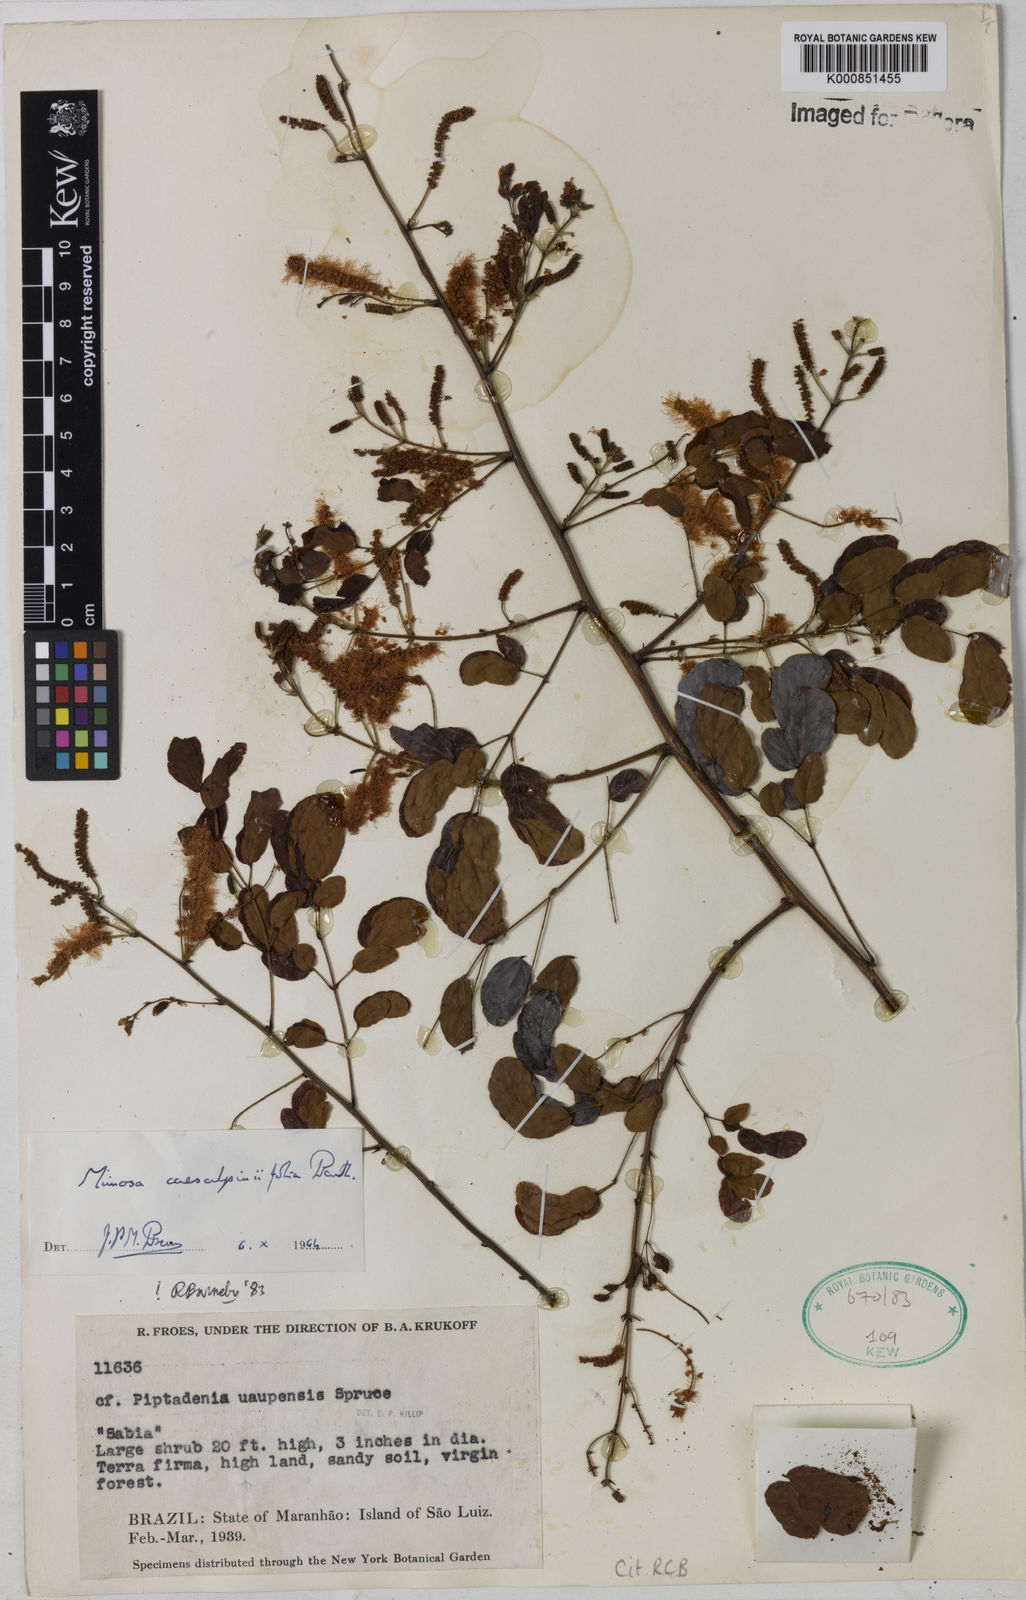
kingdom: Plantae
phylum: Tracheophyta
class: Magnoliopsida
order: Fabales
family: Fabaceae
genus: Mimosa
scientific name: Mimosa caesalpiniifolia
